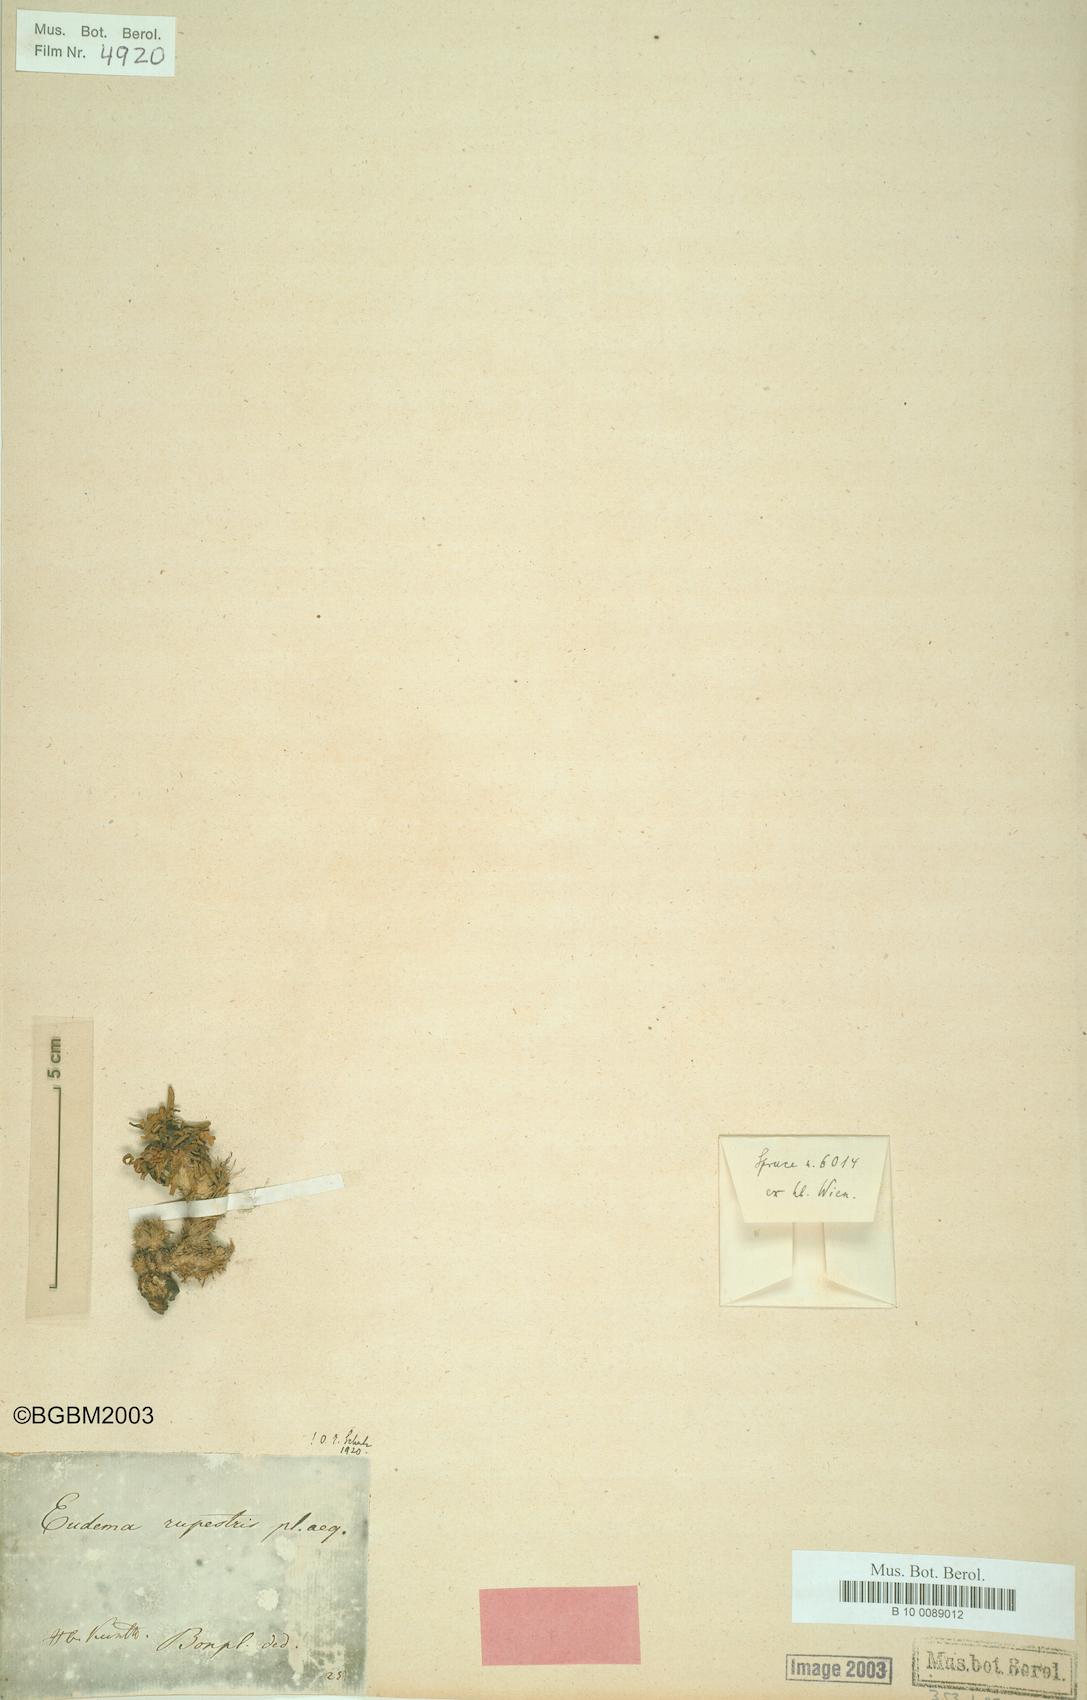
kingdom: Plantae
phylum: Tracheophyta
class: Magnoliopsida
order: Brassicales
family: Brassicaceae
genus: Eudema
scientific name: Eudema rupestris
